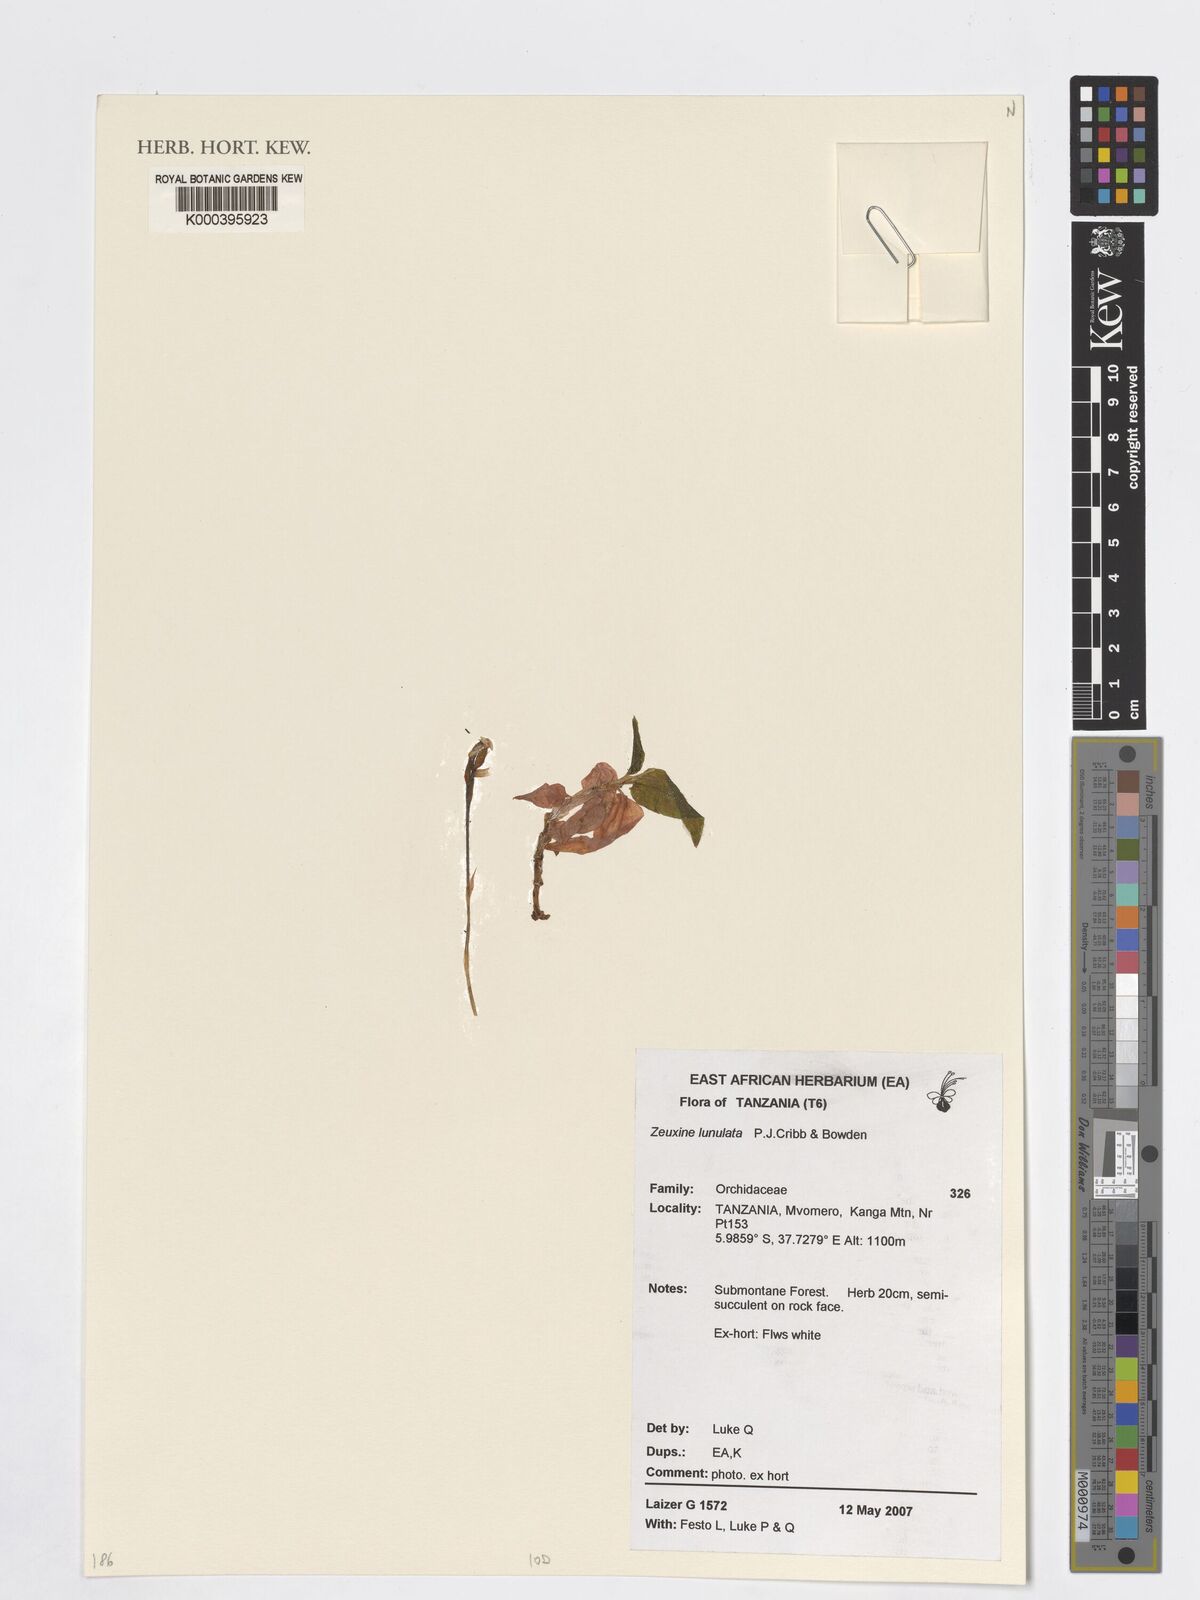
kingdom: Plantae
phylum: Tracheophyta
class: Liliopsida
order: Asparagales
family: Orchidaceae
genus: Zeuxine
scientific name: Zeuxine lunulata
